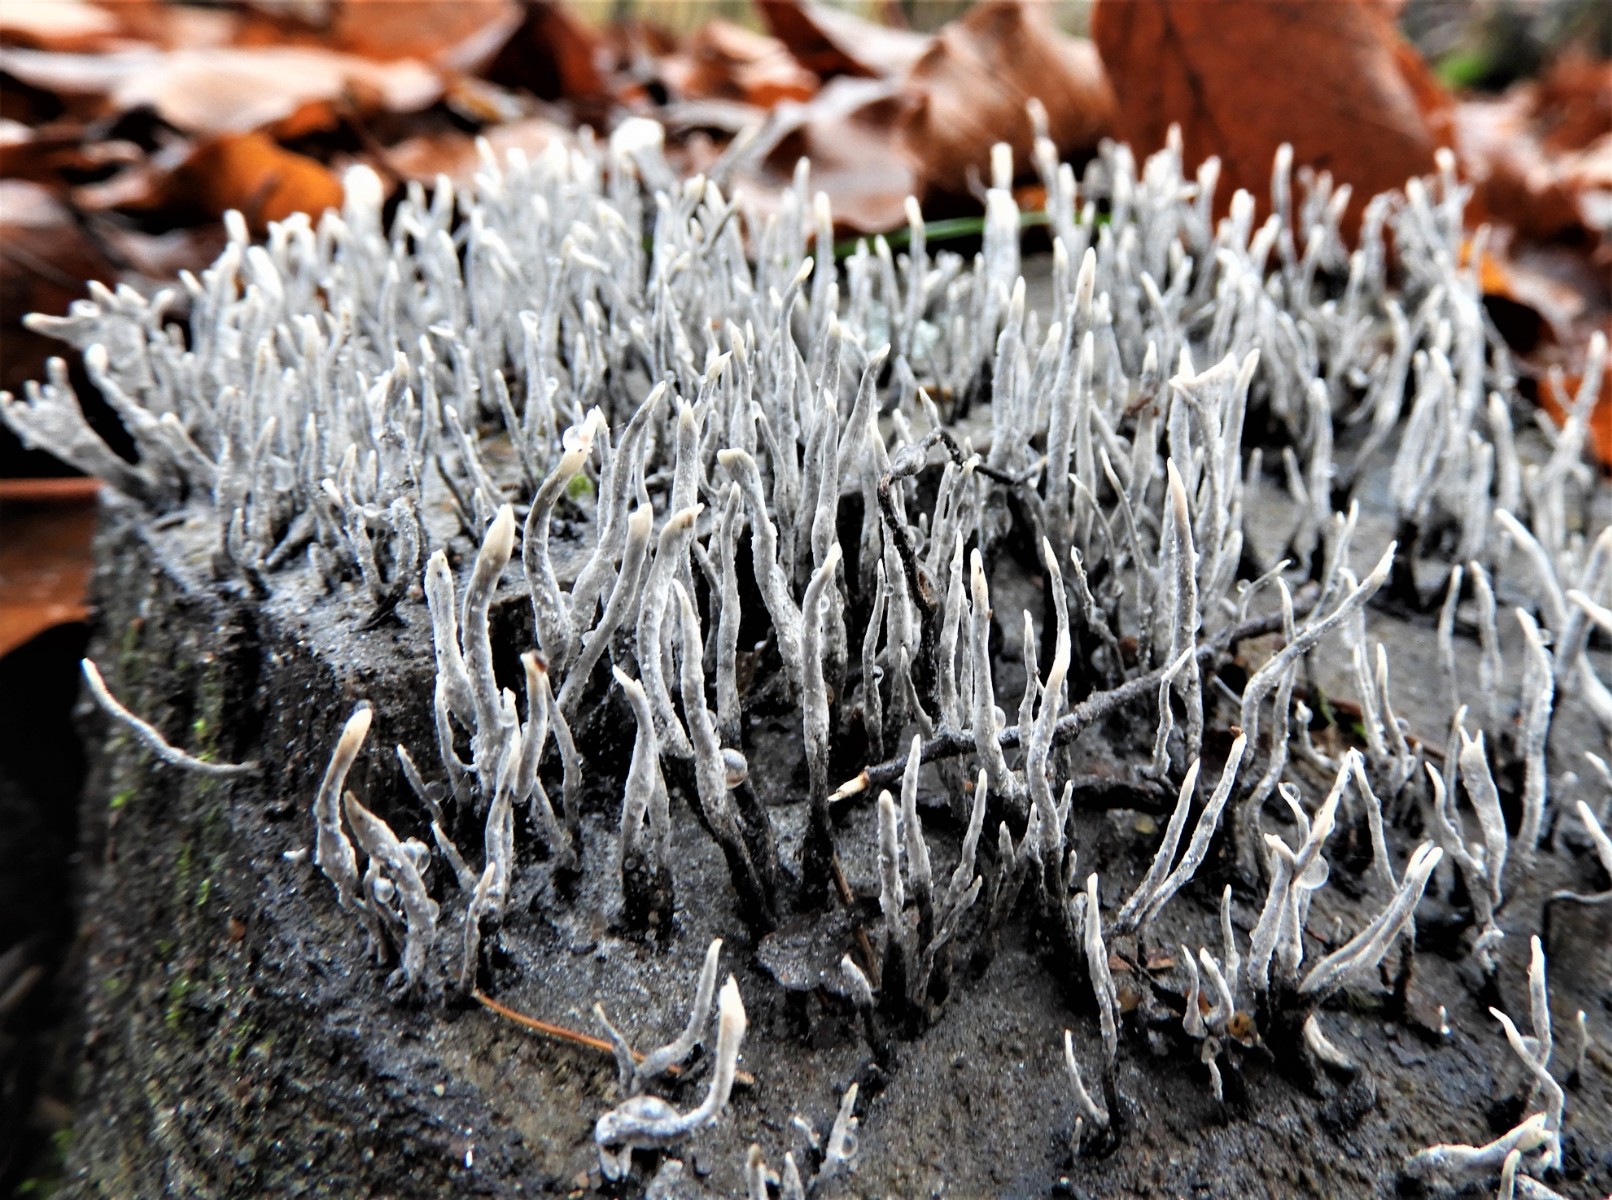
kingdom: Fungi
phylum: Ascomycota
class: Sordariomycetes
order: Xylariales
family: Xylariaceae
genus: Xylaria
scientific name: Xylaria hypoxylon
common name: grenet stødsvamp
